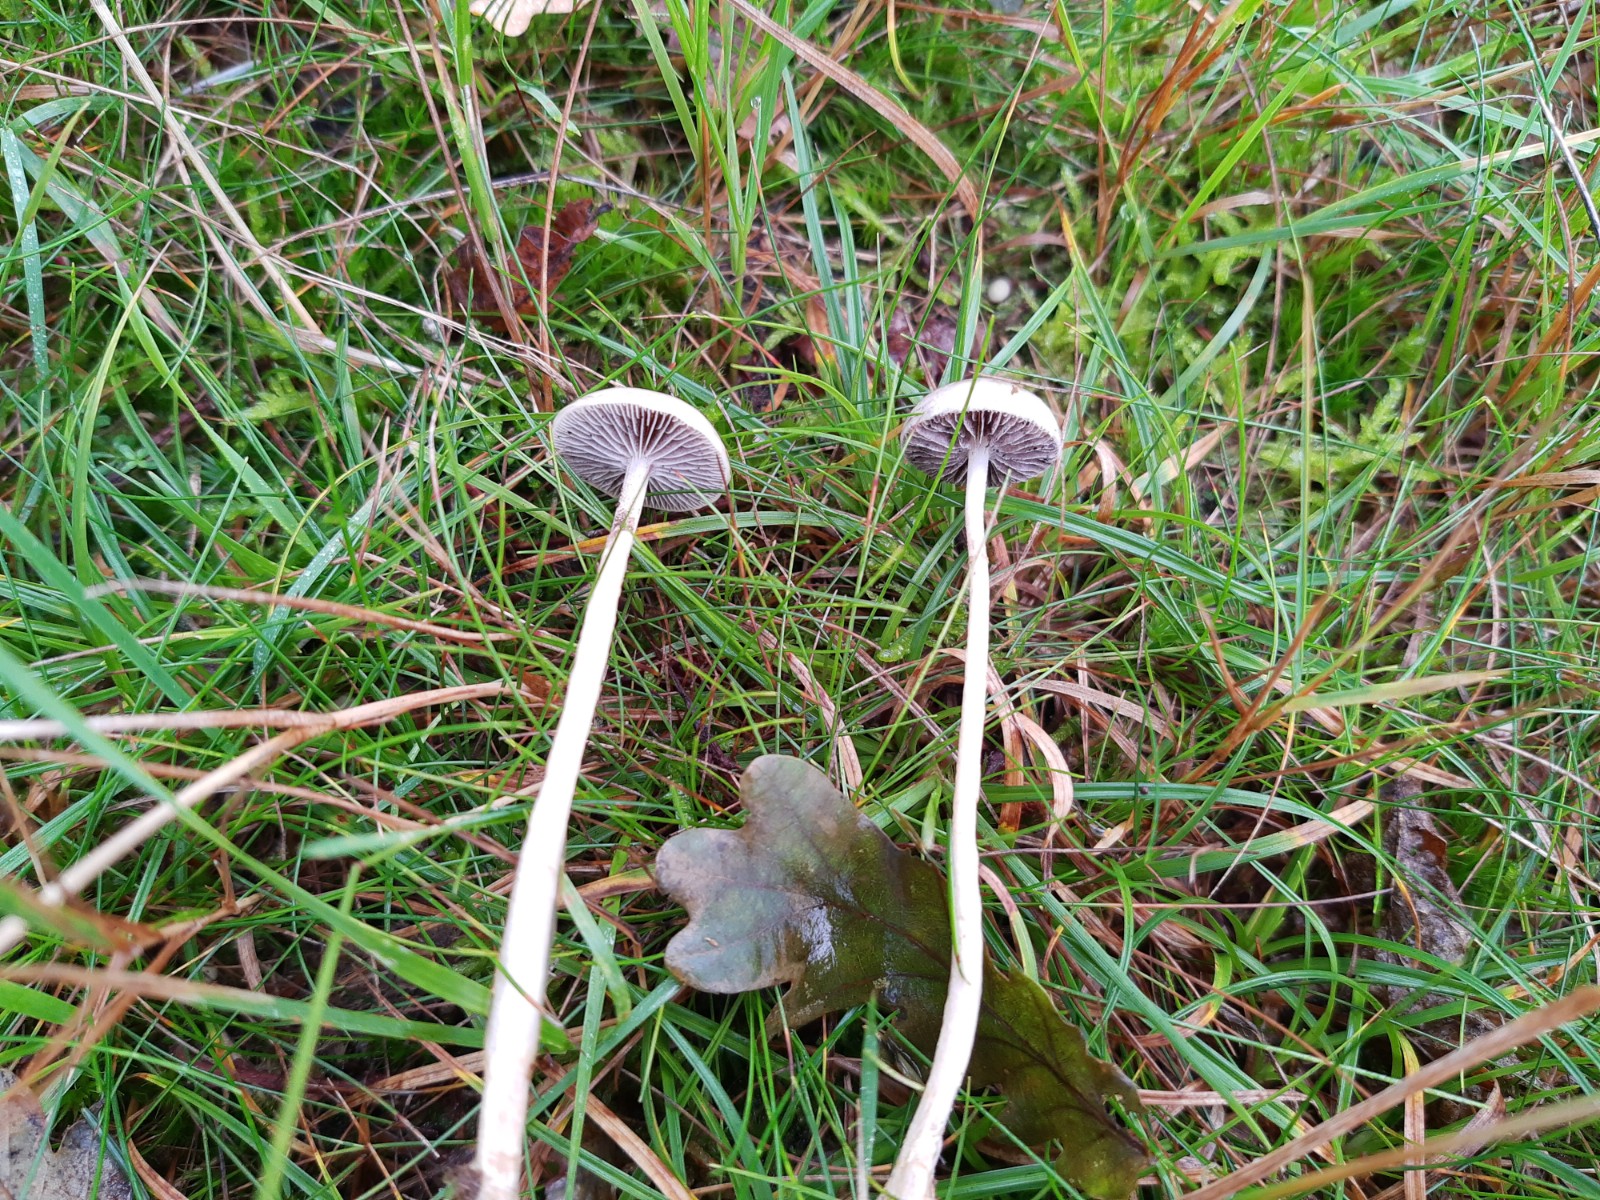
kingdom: Fungi
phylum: Basidiomycota
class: Agaricomycetes
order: Agaricales
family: Strophariaceae
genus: Protostropharia
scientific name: Protostropharia semiglobata
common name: halvkugleformet bredblad
